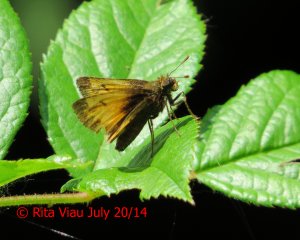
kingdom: Animalia
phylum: Arthropoda
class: Insecta
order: Lepidoptera
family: Hesperiidae
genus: Lon
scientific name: Lon hobomok
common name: Hobomok Skipper
